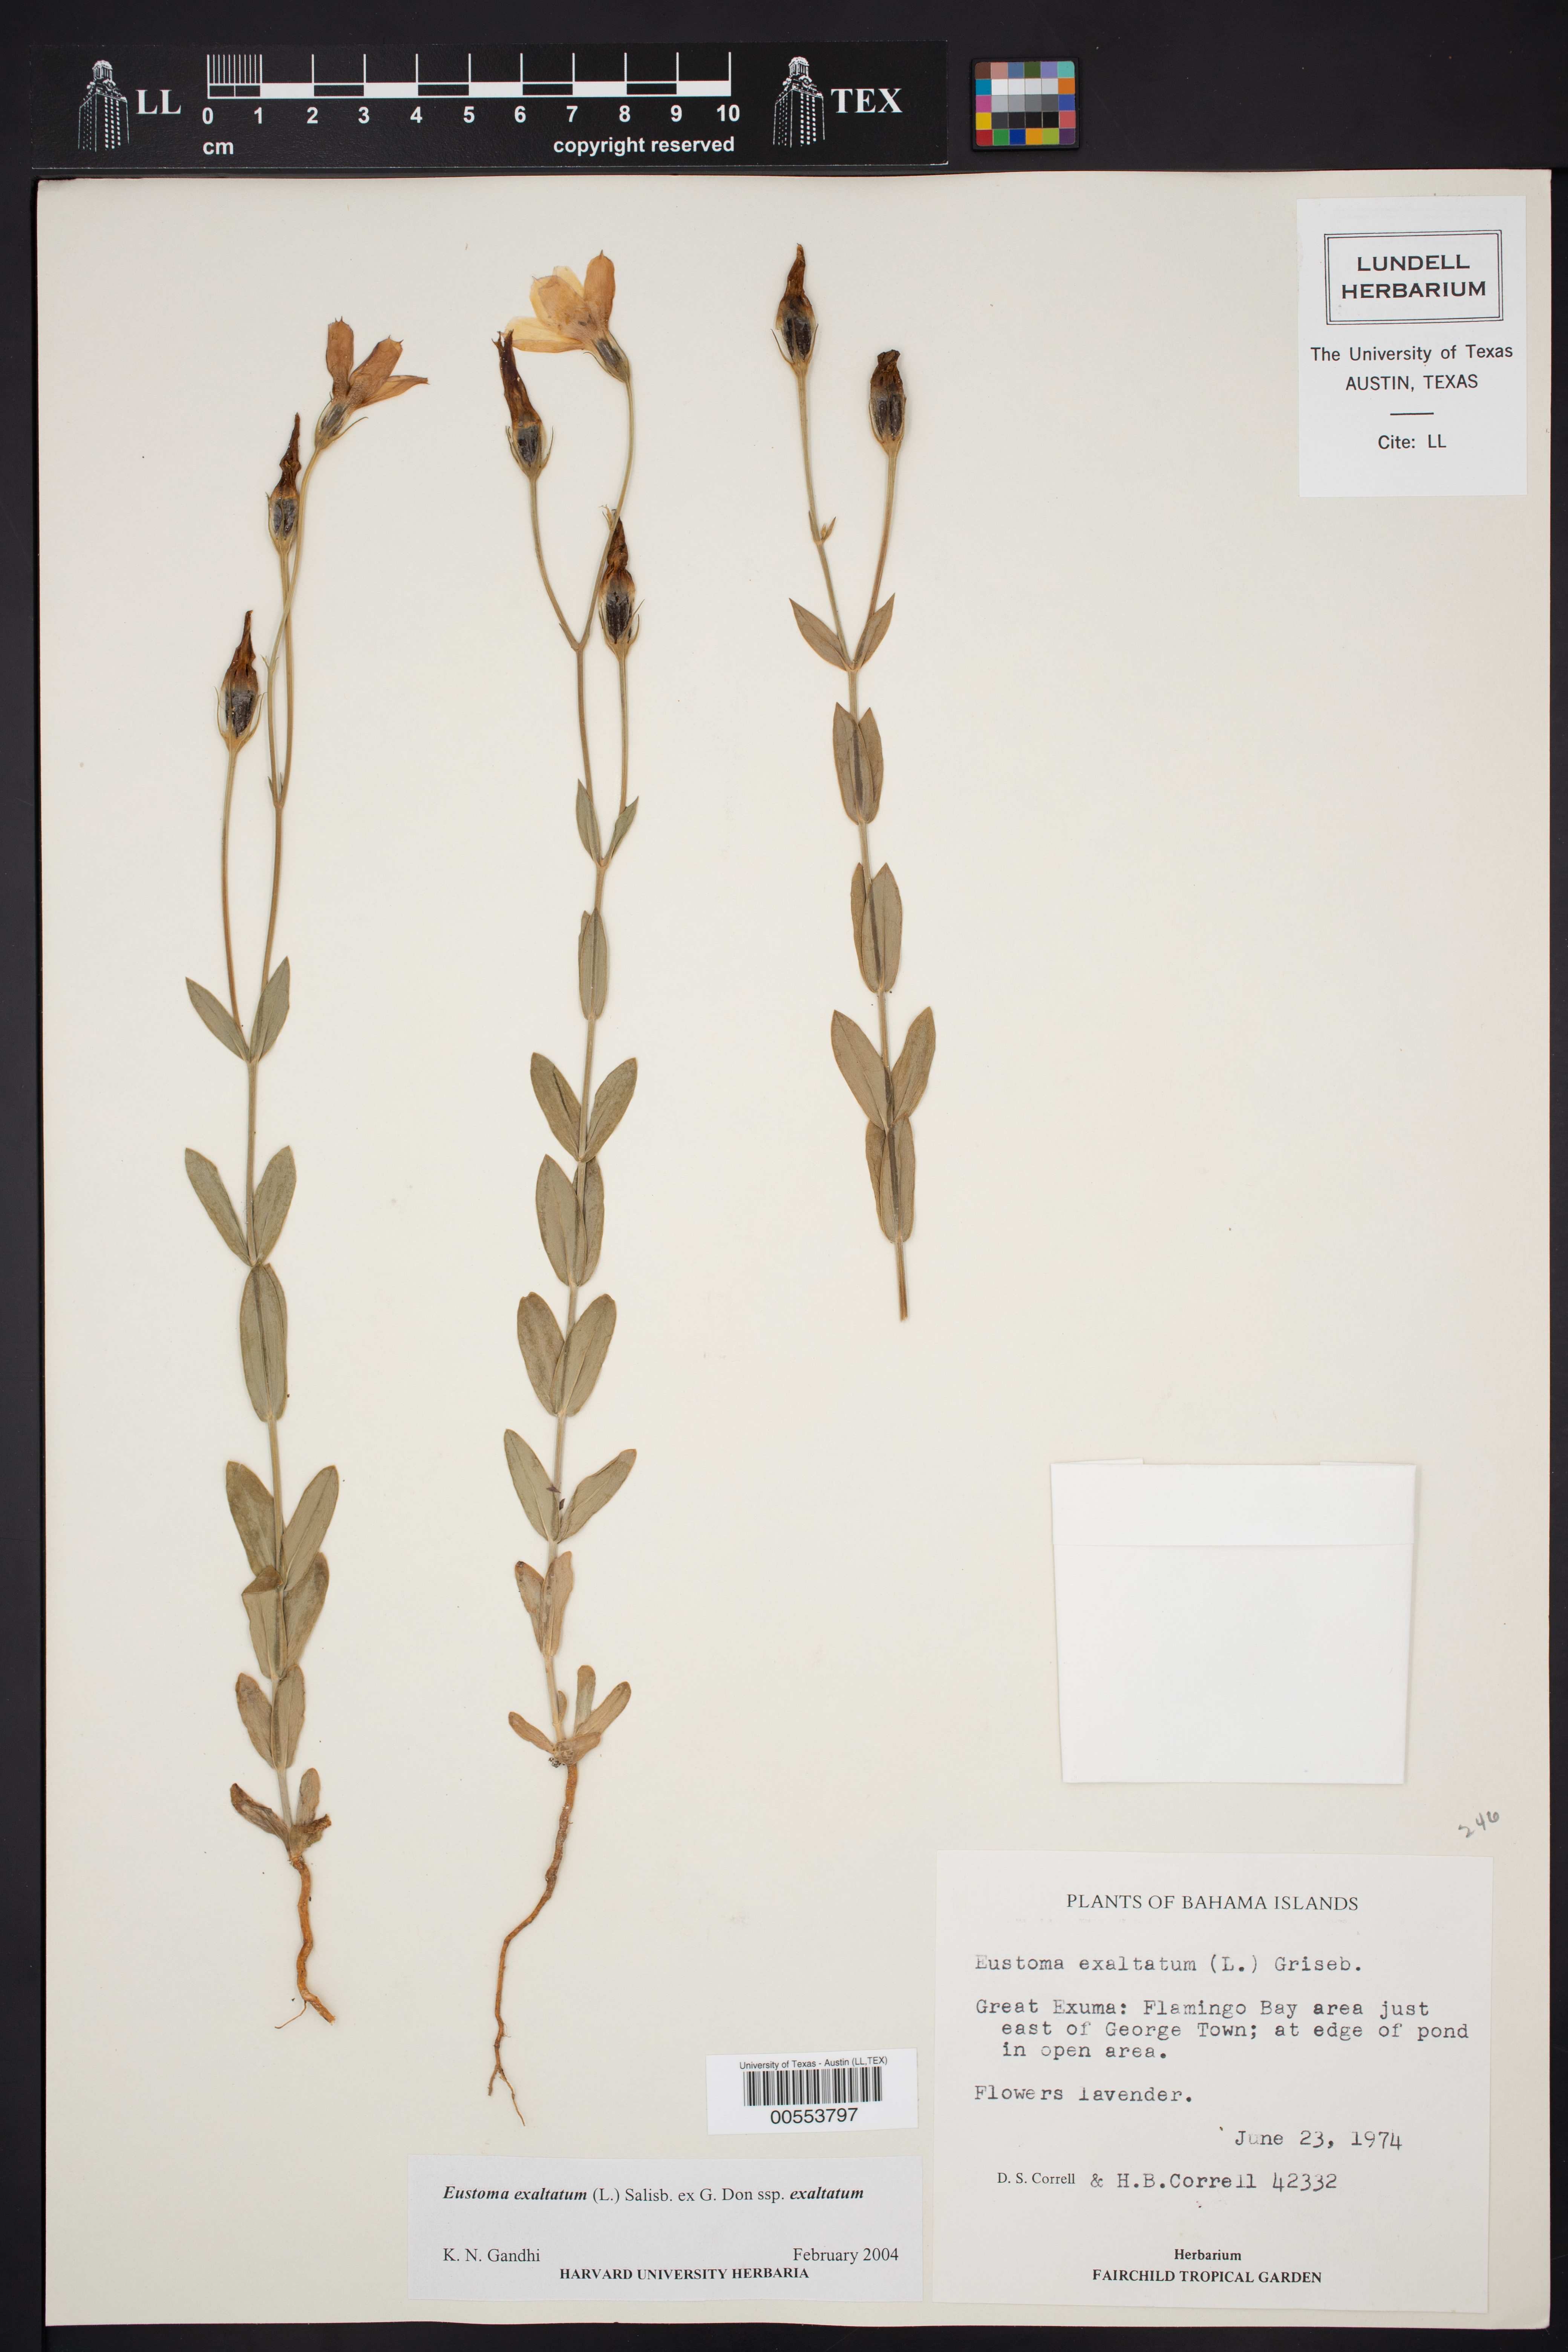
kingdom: Plantae
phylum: Tracheophyta
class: Magnoliopsida
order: Gentianales
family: Gentianaceae
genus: Eustoma
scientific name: Eustoma exaltatum
